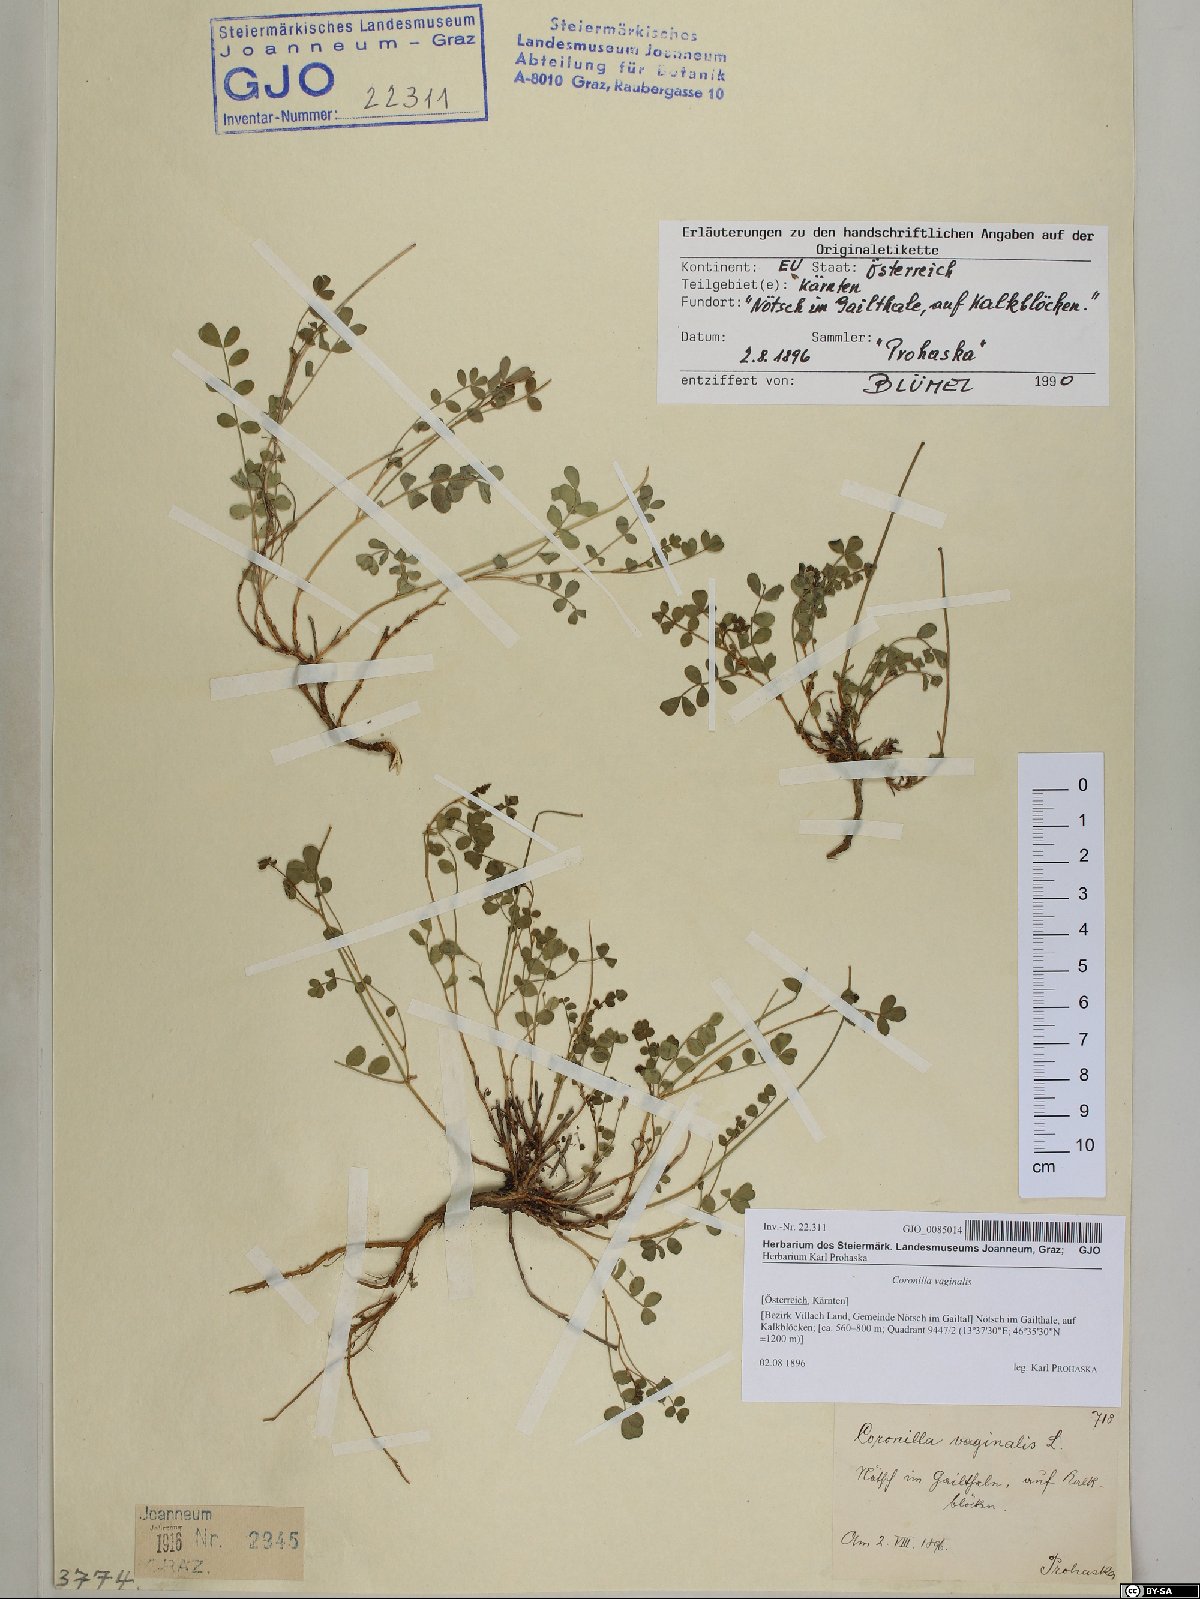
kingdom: Plantae
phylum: Tracheophyta
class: Magnoliopsida
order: Fabales
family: Fabaceae
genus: Coronilla
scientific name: Coronilla vaginalis
